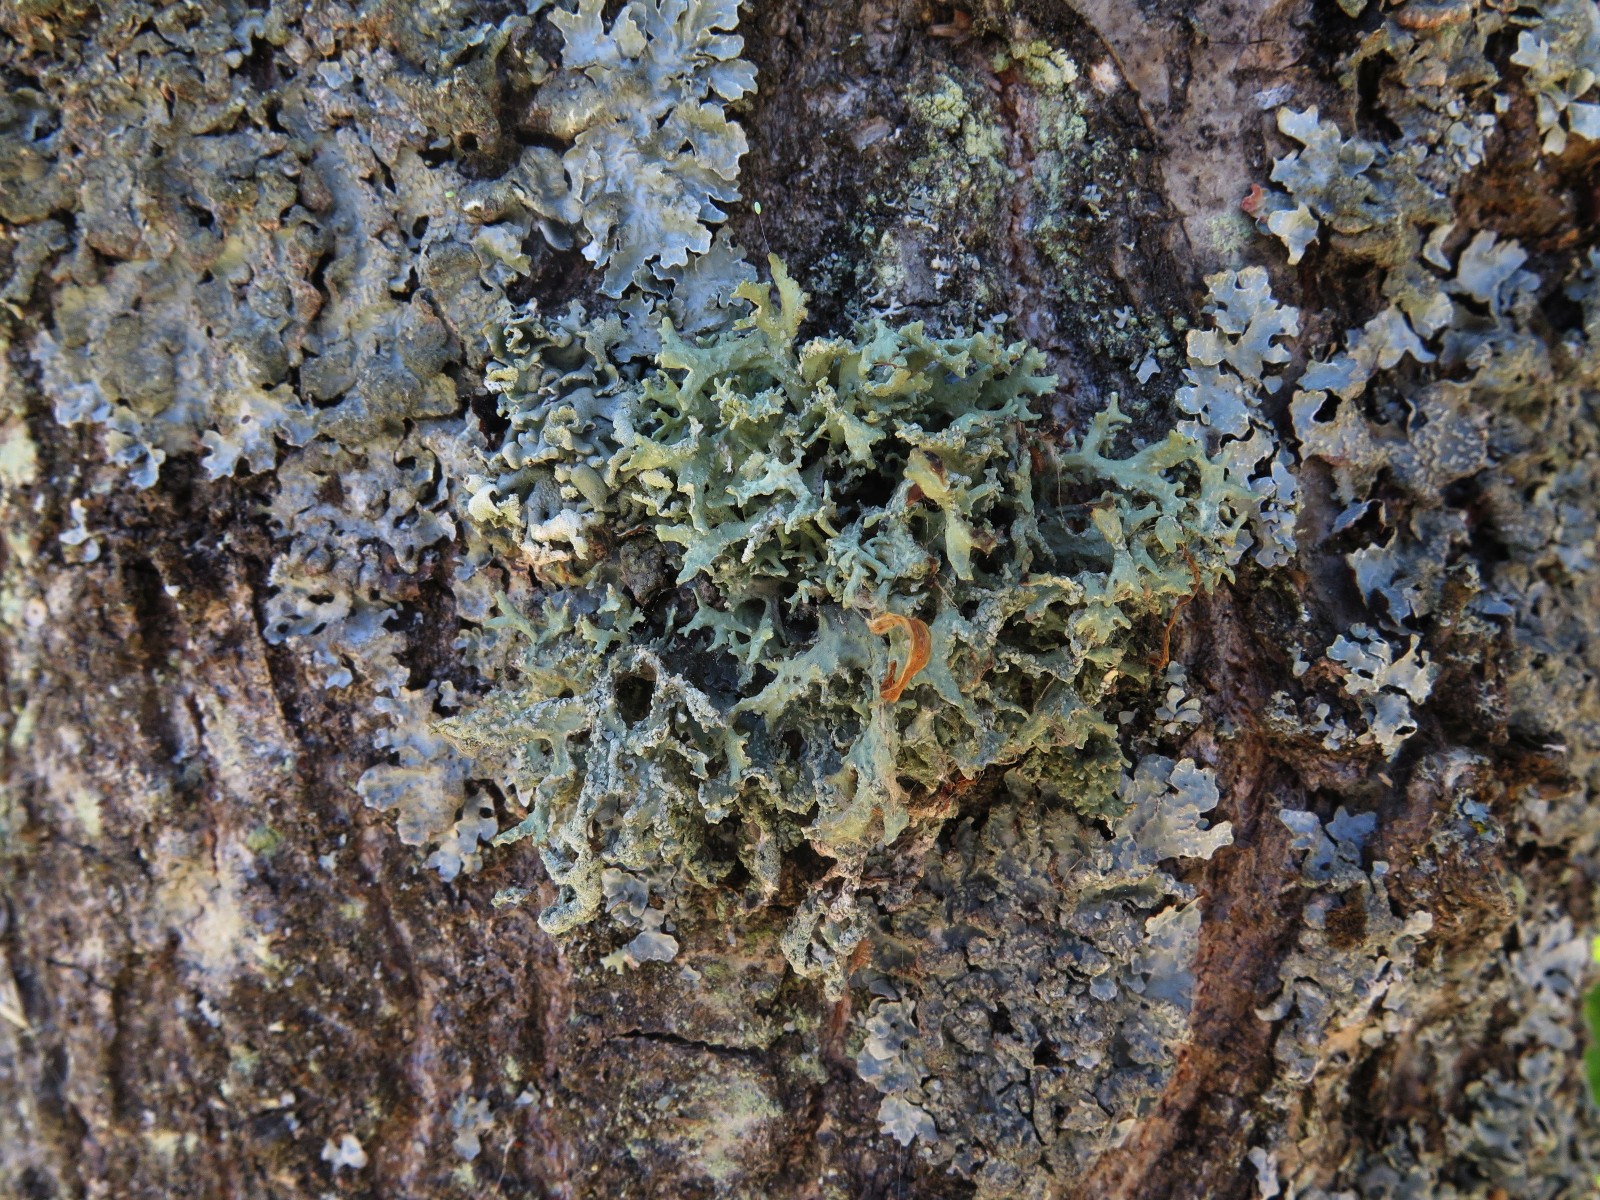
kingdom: Fungi
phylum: Ascomycota
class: Lecanoromycetes
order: Lecanorales
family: Parmeliaceae
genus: Evernia
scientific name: Evernia prunastri
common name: almindelig slåenlav
